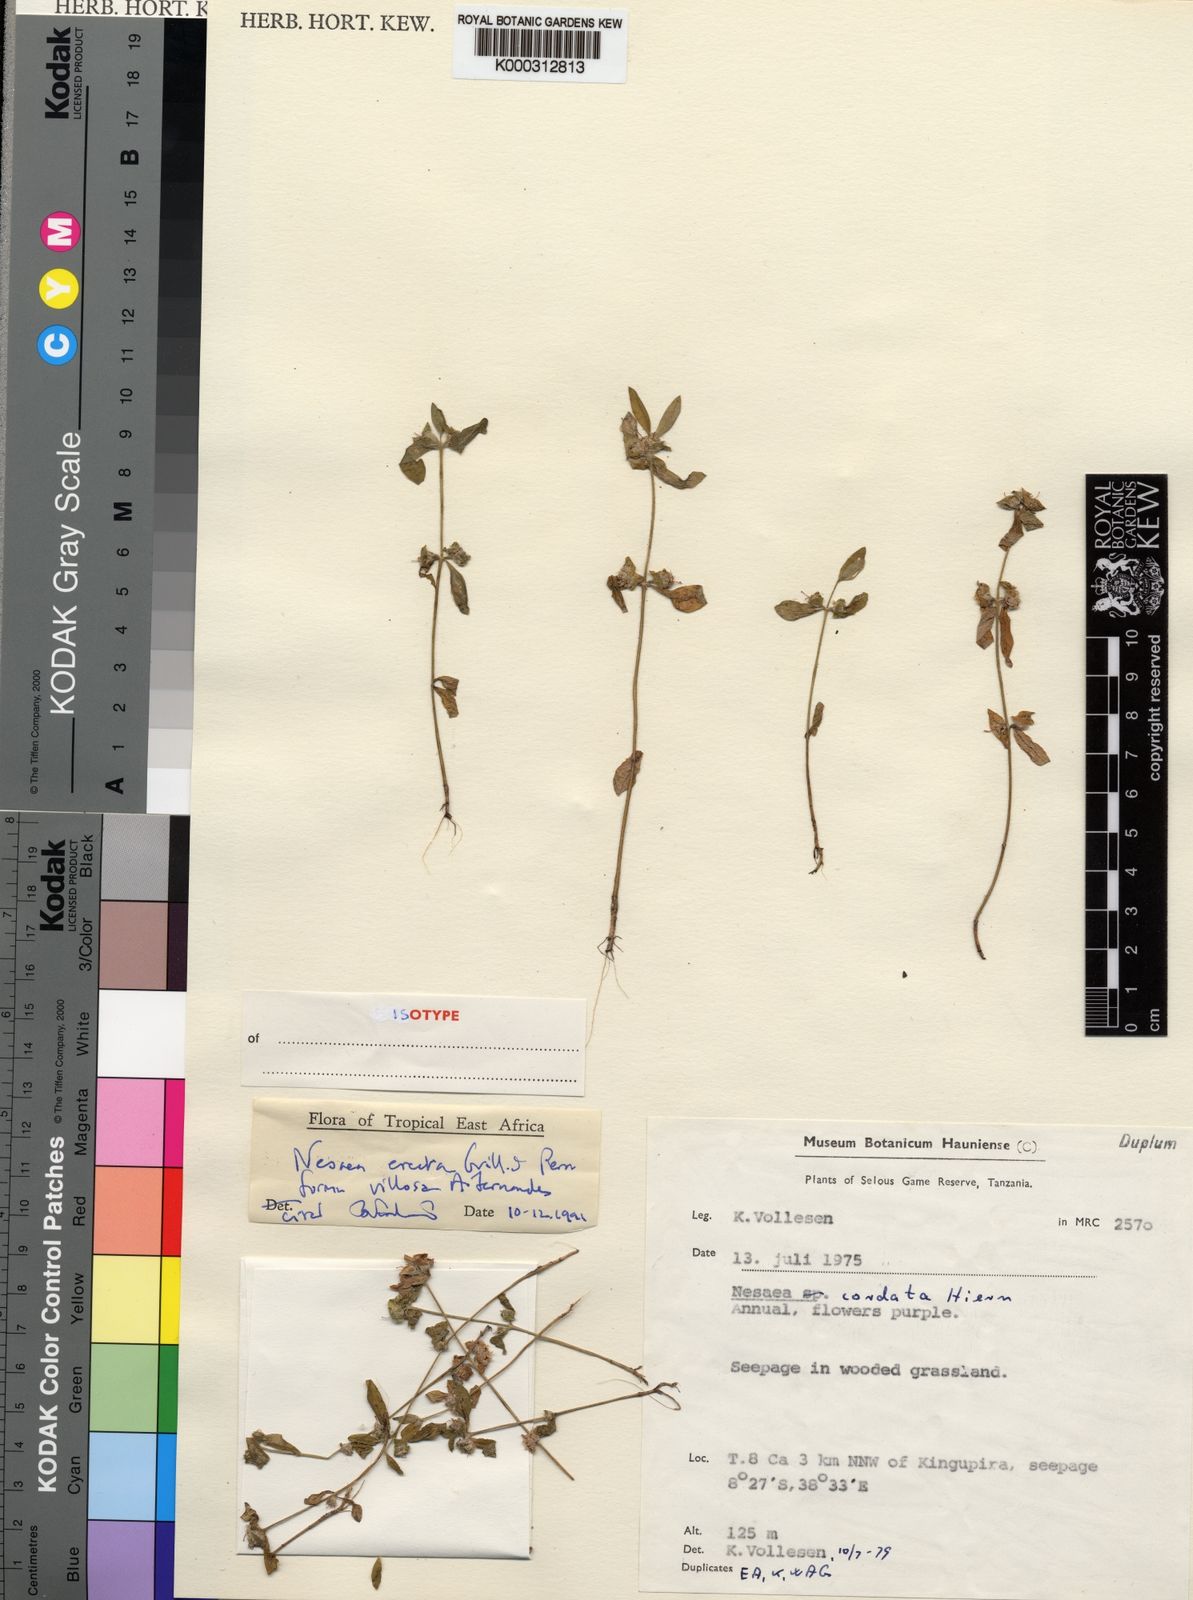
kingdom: Plantae
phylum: Tracheophyta
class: Magnoliopsida
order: Myrtales
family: Lythraceae
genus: Ammannia
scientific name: Ammannia erecta
